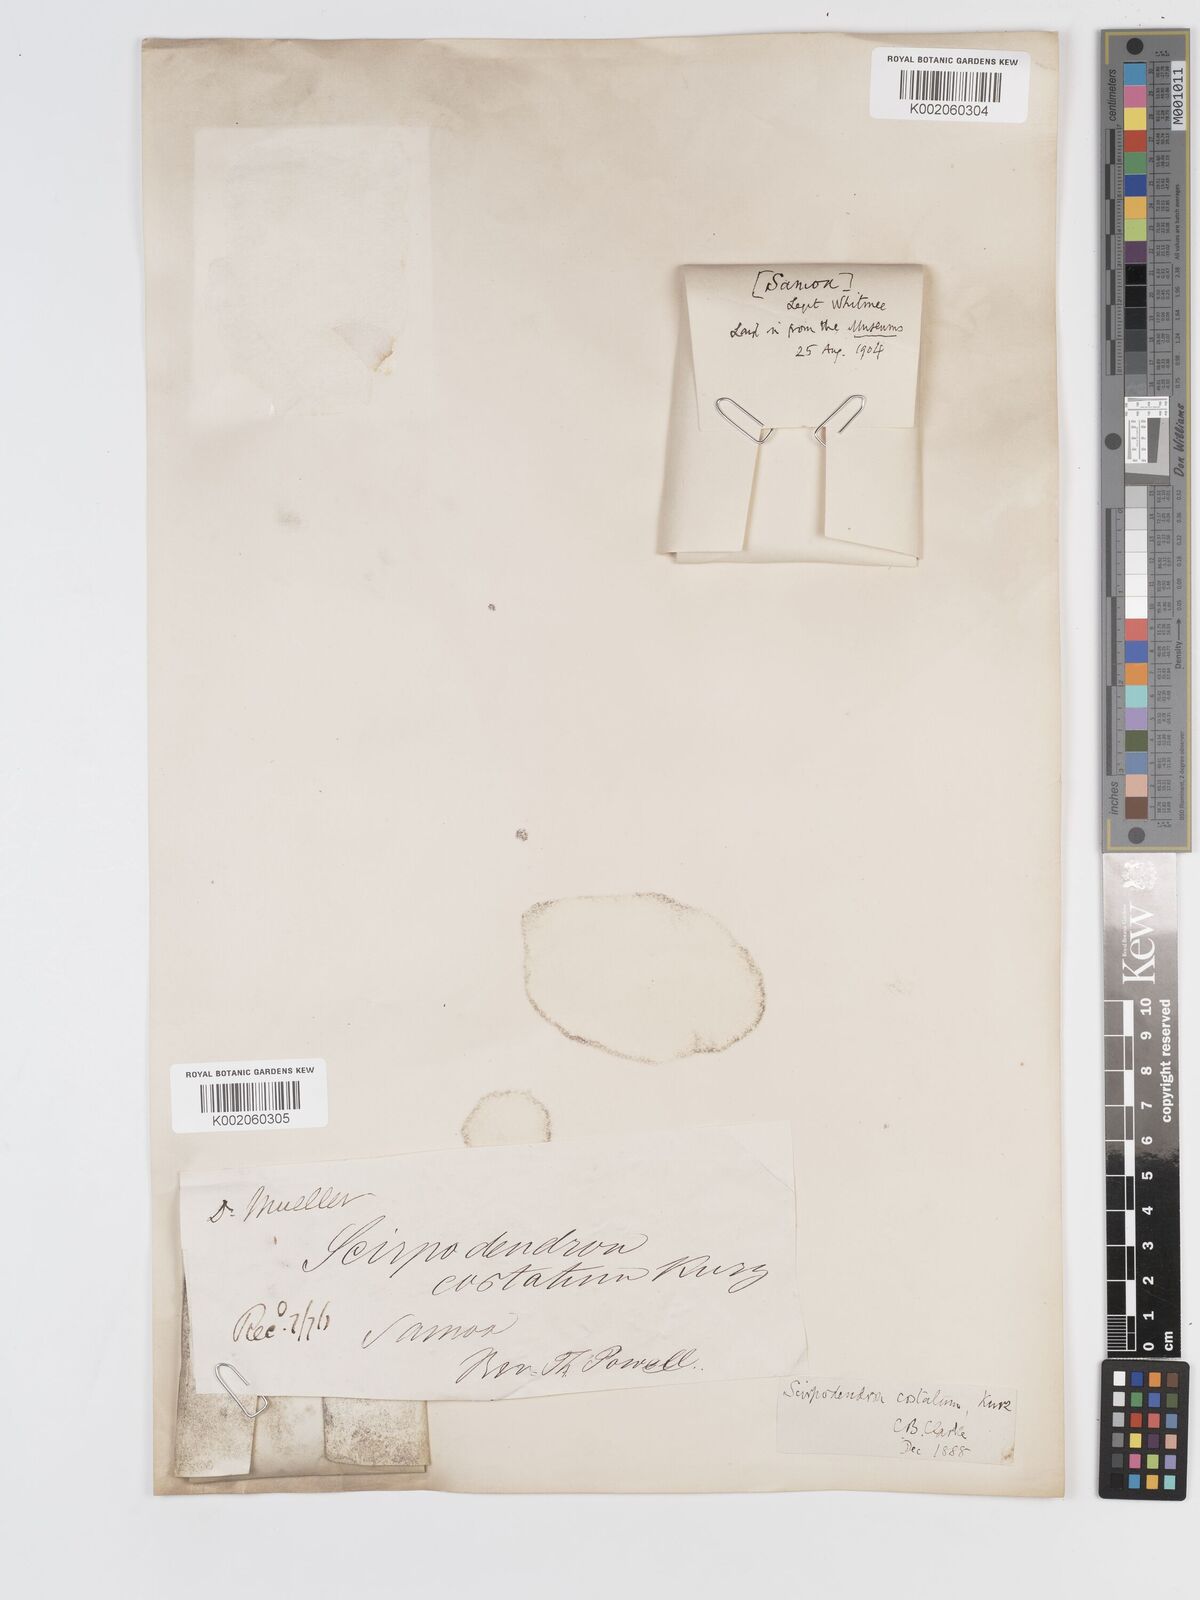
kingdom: Plantae
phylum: Tracheophyta
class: Liliopsida
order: Poales
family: Cyperaceae
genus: Scirpodendron
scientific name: Scirpodendron ghaeri
